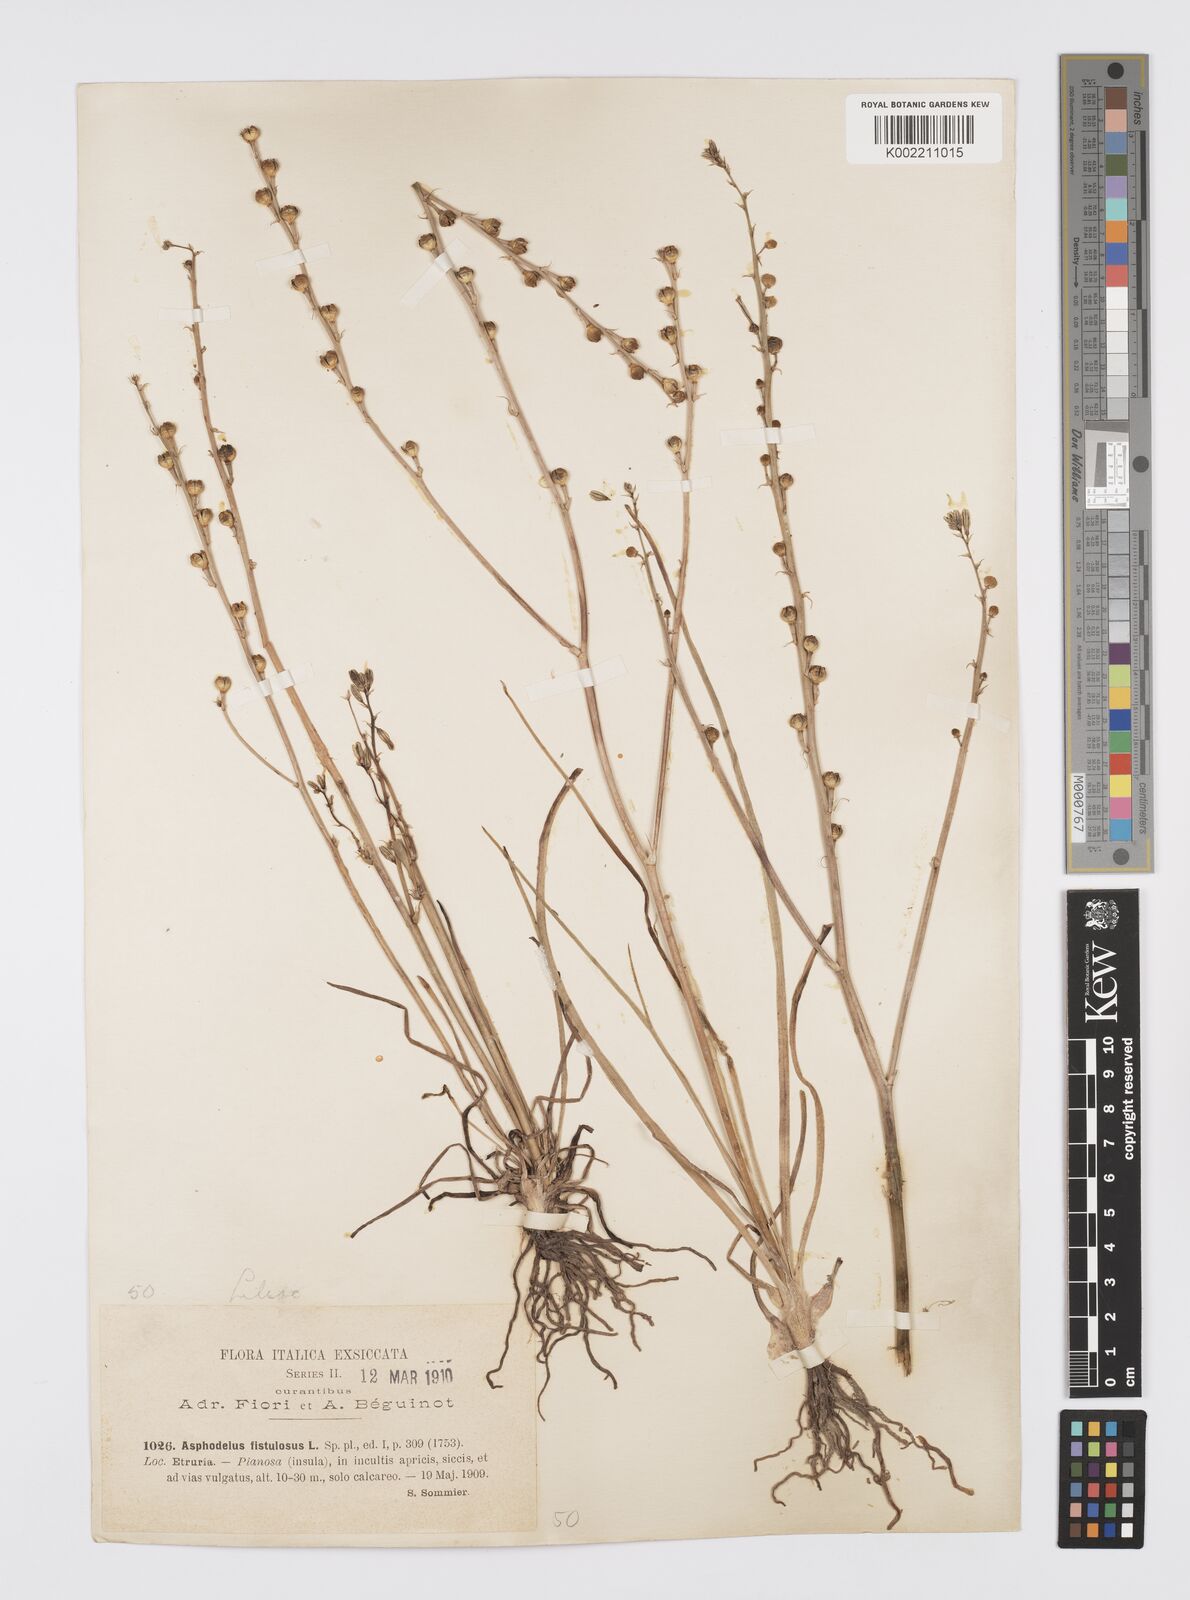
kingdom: Plantae
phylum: Tracheophyta
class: Liliopsida
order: Asparagales
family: Asphodelaceae
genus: Asphodelus
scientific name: Asphodelus fistulosus
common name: Onionweed
